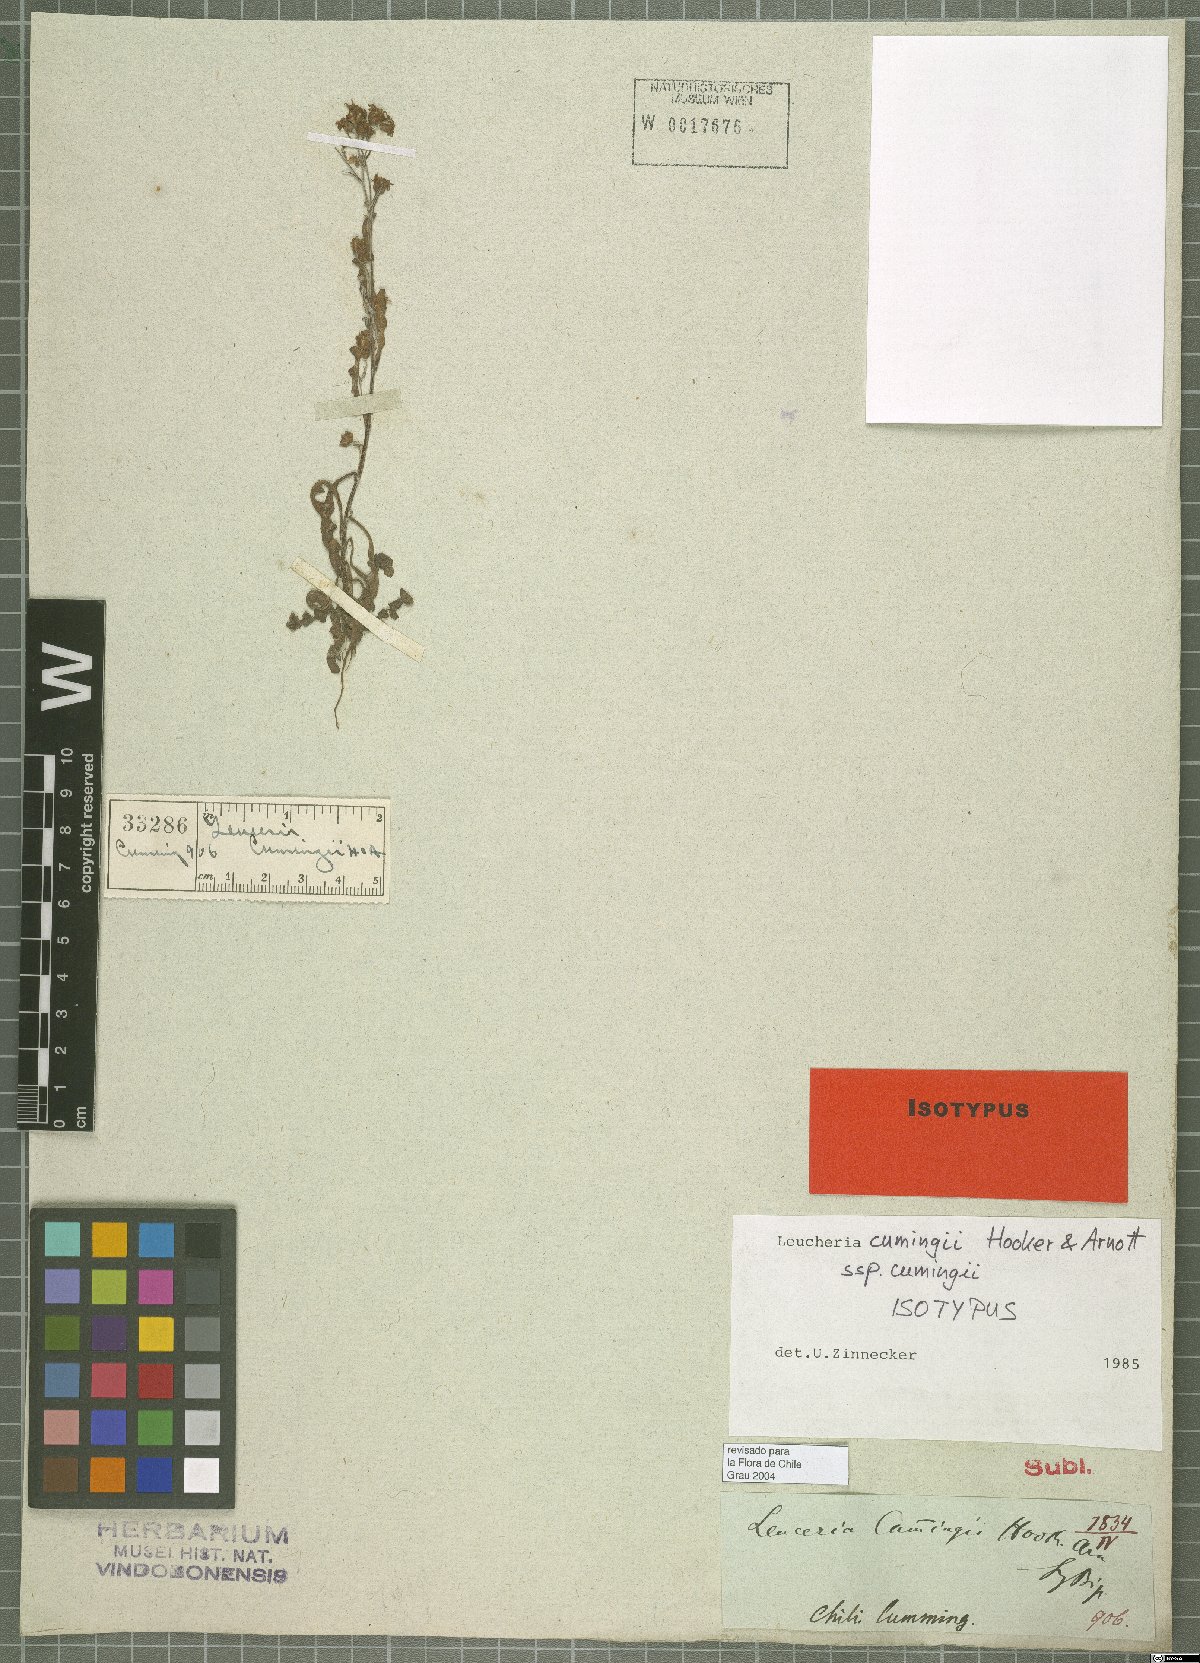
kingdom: Plantae
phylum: Tracheophyta
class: Magnoliopsida
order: Asterales
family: Asteraceae
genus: Leucheria
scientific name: Leucheria cumingii
